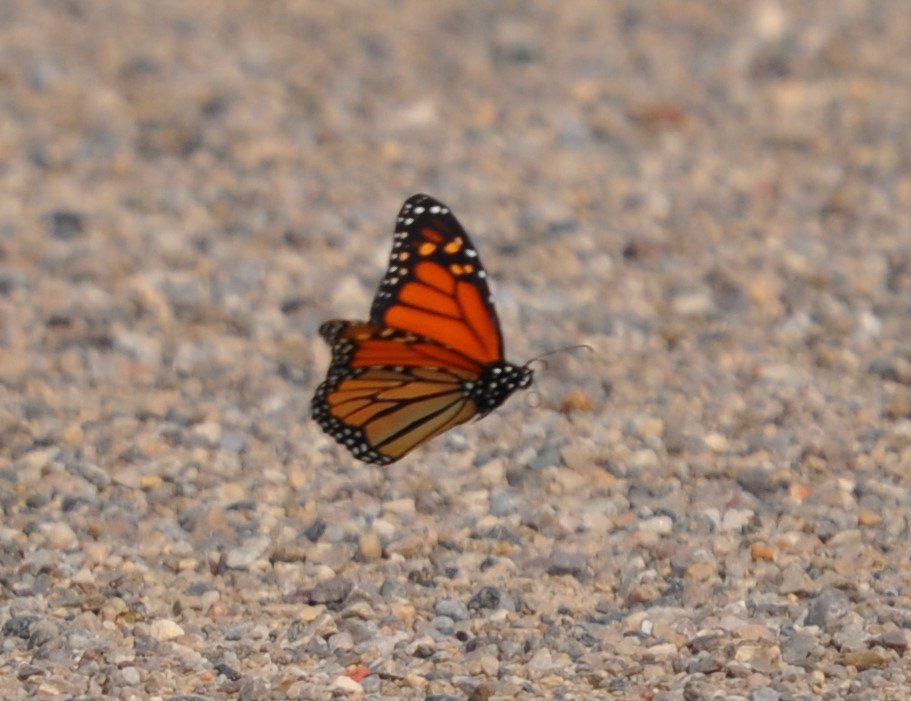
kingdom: Animalia
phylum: Arthropoda
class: Insecta
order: Lepidoptera
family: Nymphalidae
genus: Danaus
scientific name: Danaus plexippus
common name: Monarch
